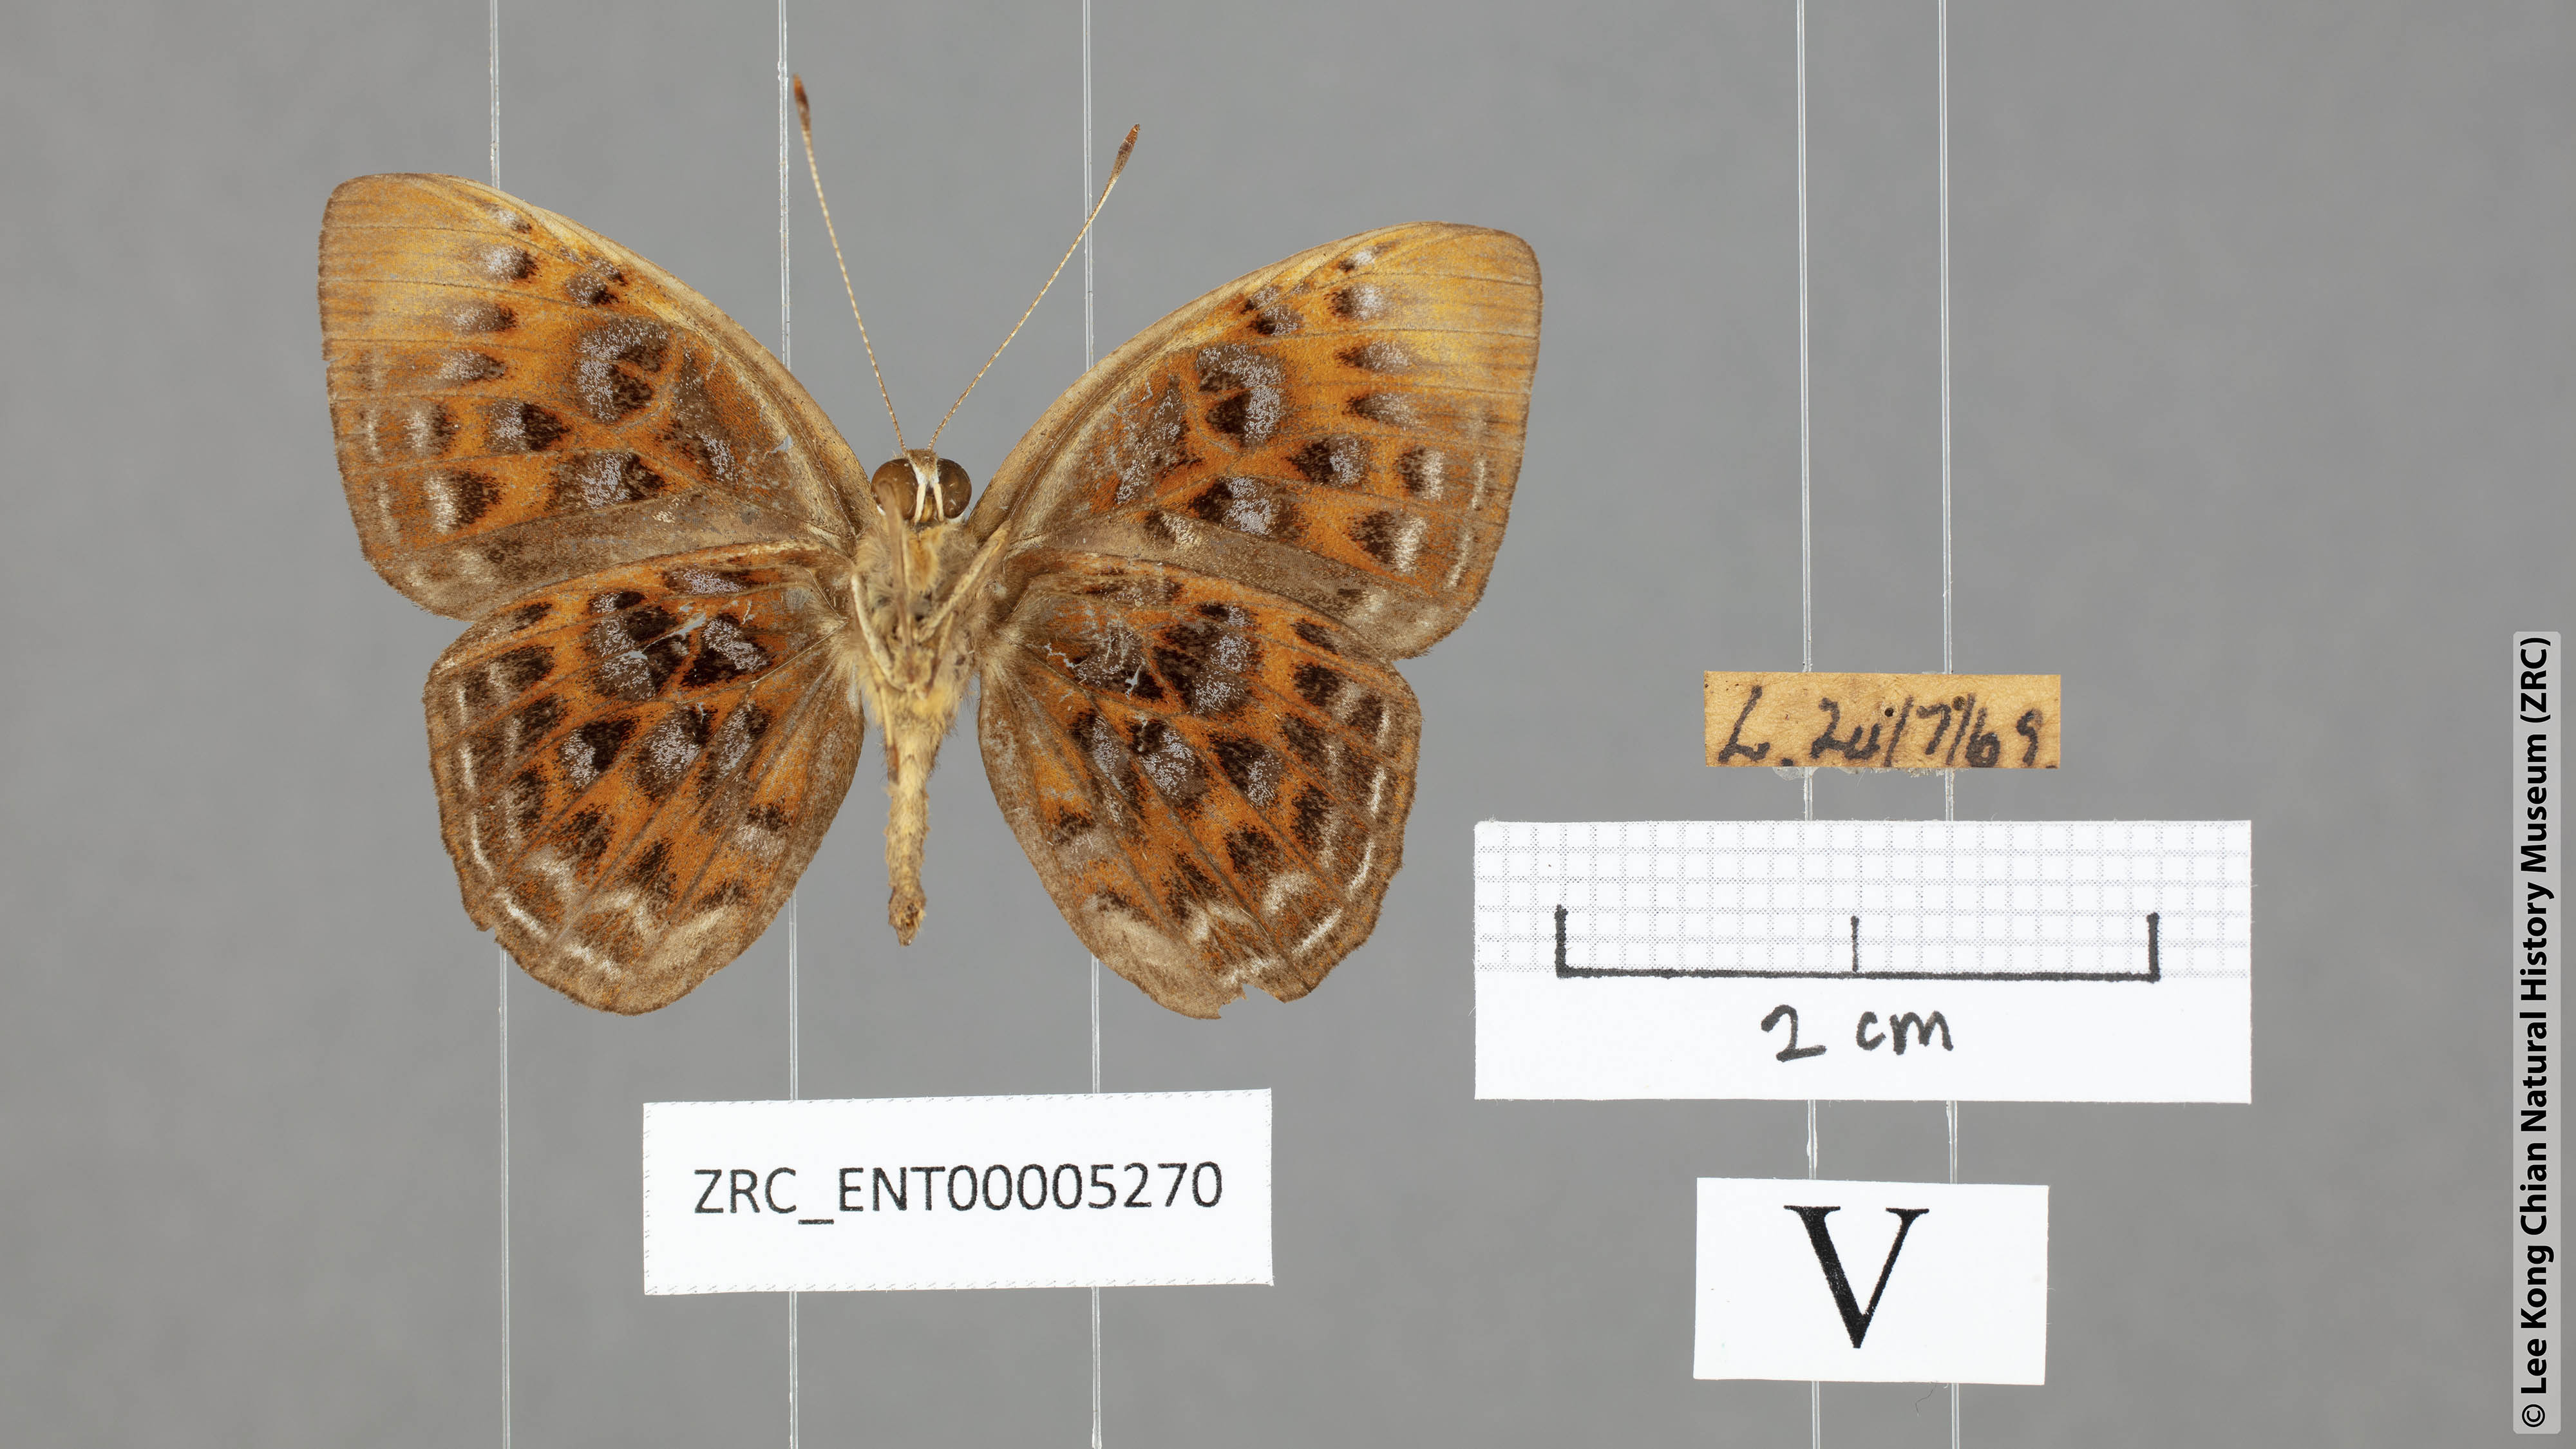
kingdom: Animalia
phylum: Arthropoda
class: Insecta
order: Lepidoptera
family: Erebidae
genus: Dysschema
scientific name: Dysschema
